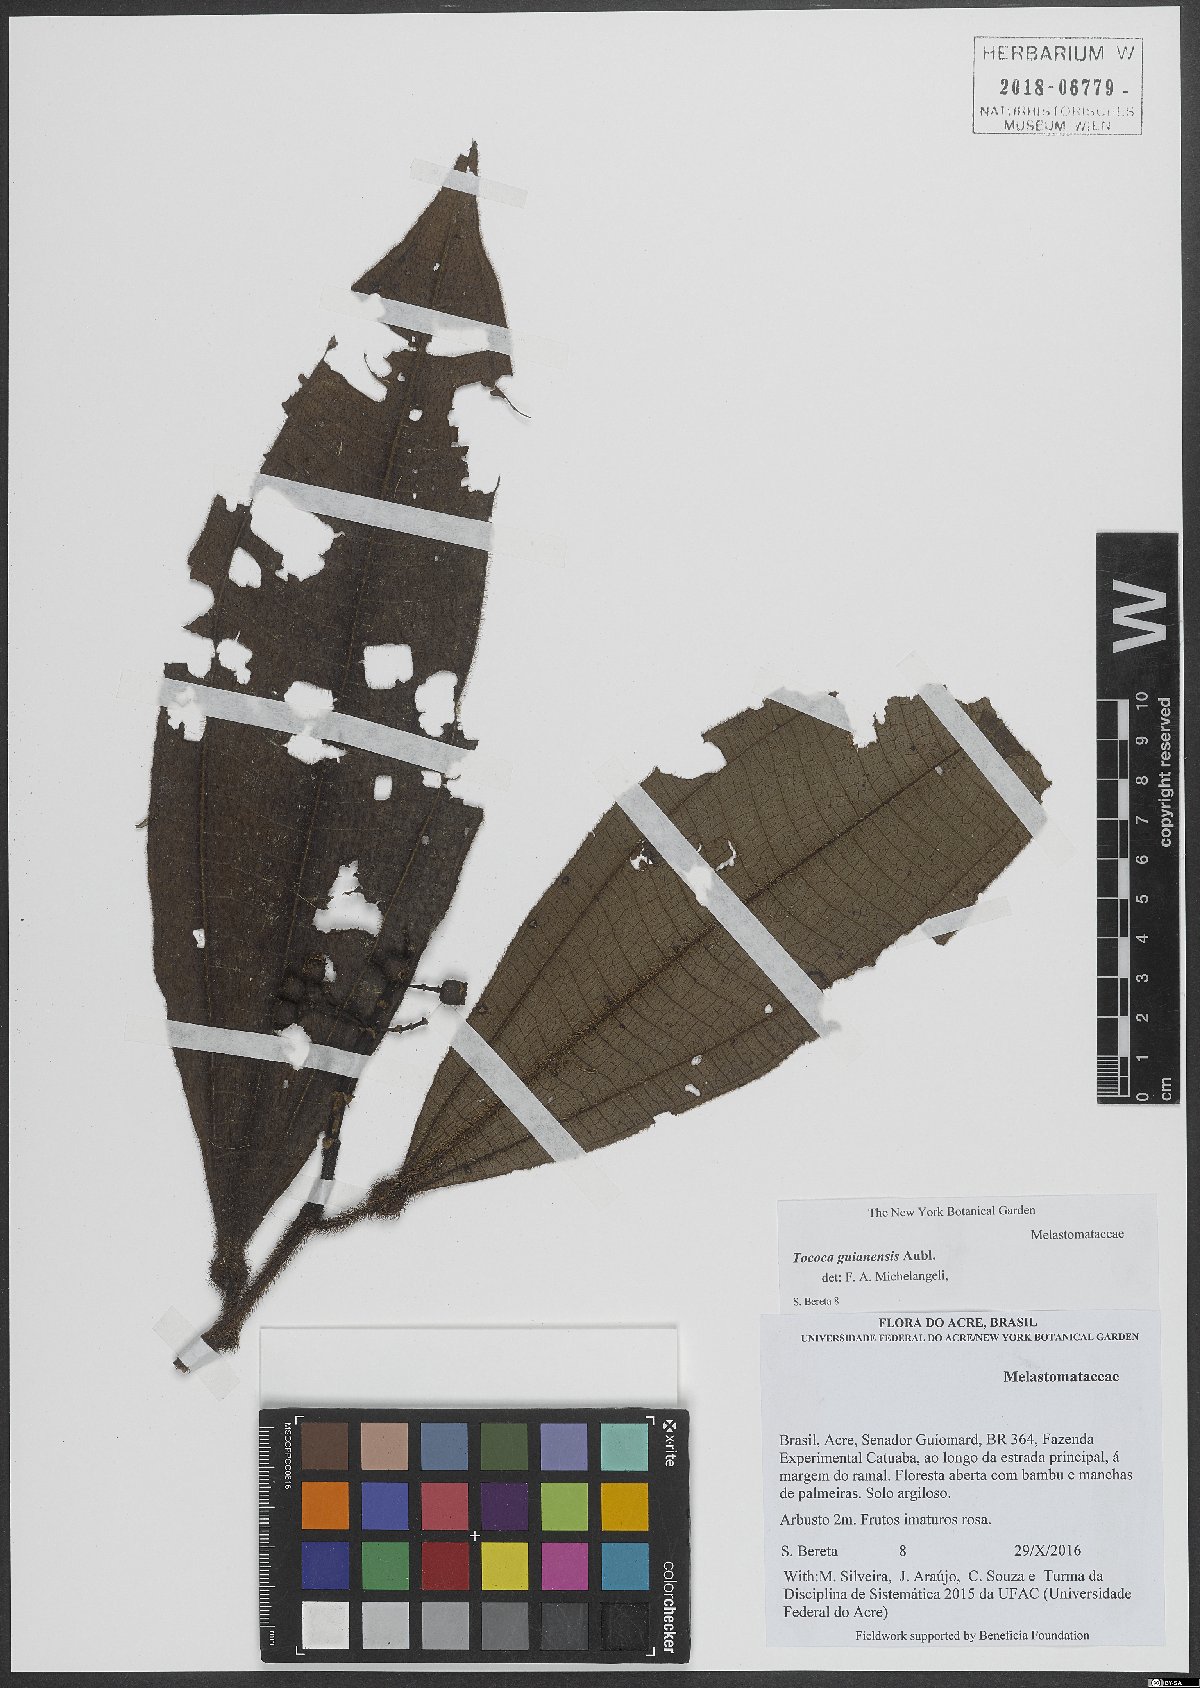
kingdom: Plantae
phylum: Tracheophyta
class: Magnoliopsida
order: Myrtales
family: Melastomataceae
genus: Miconia
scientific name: Miconia tococa
